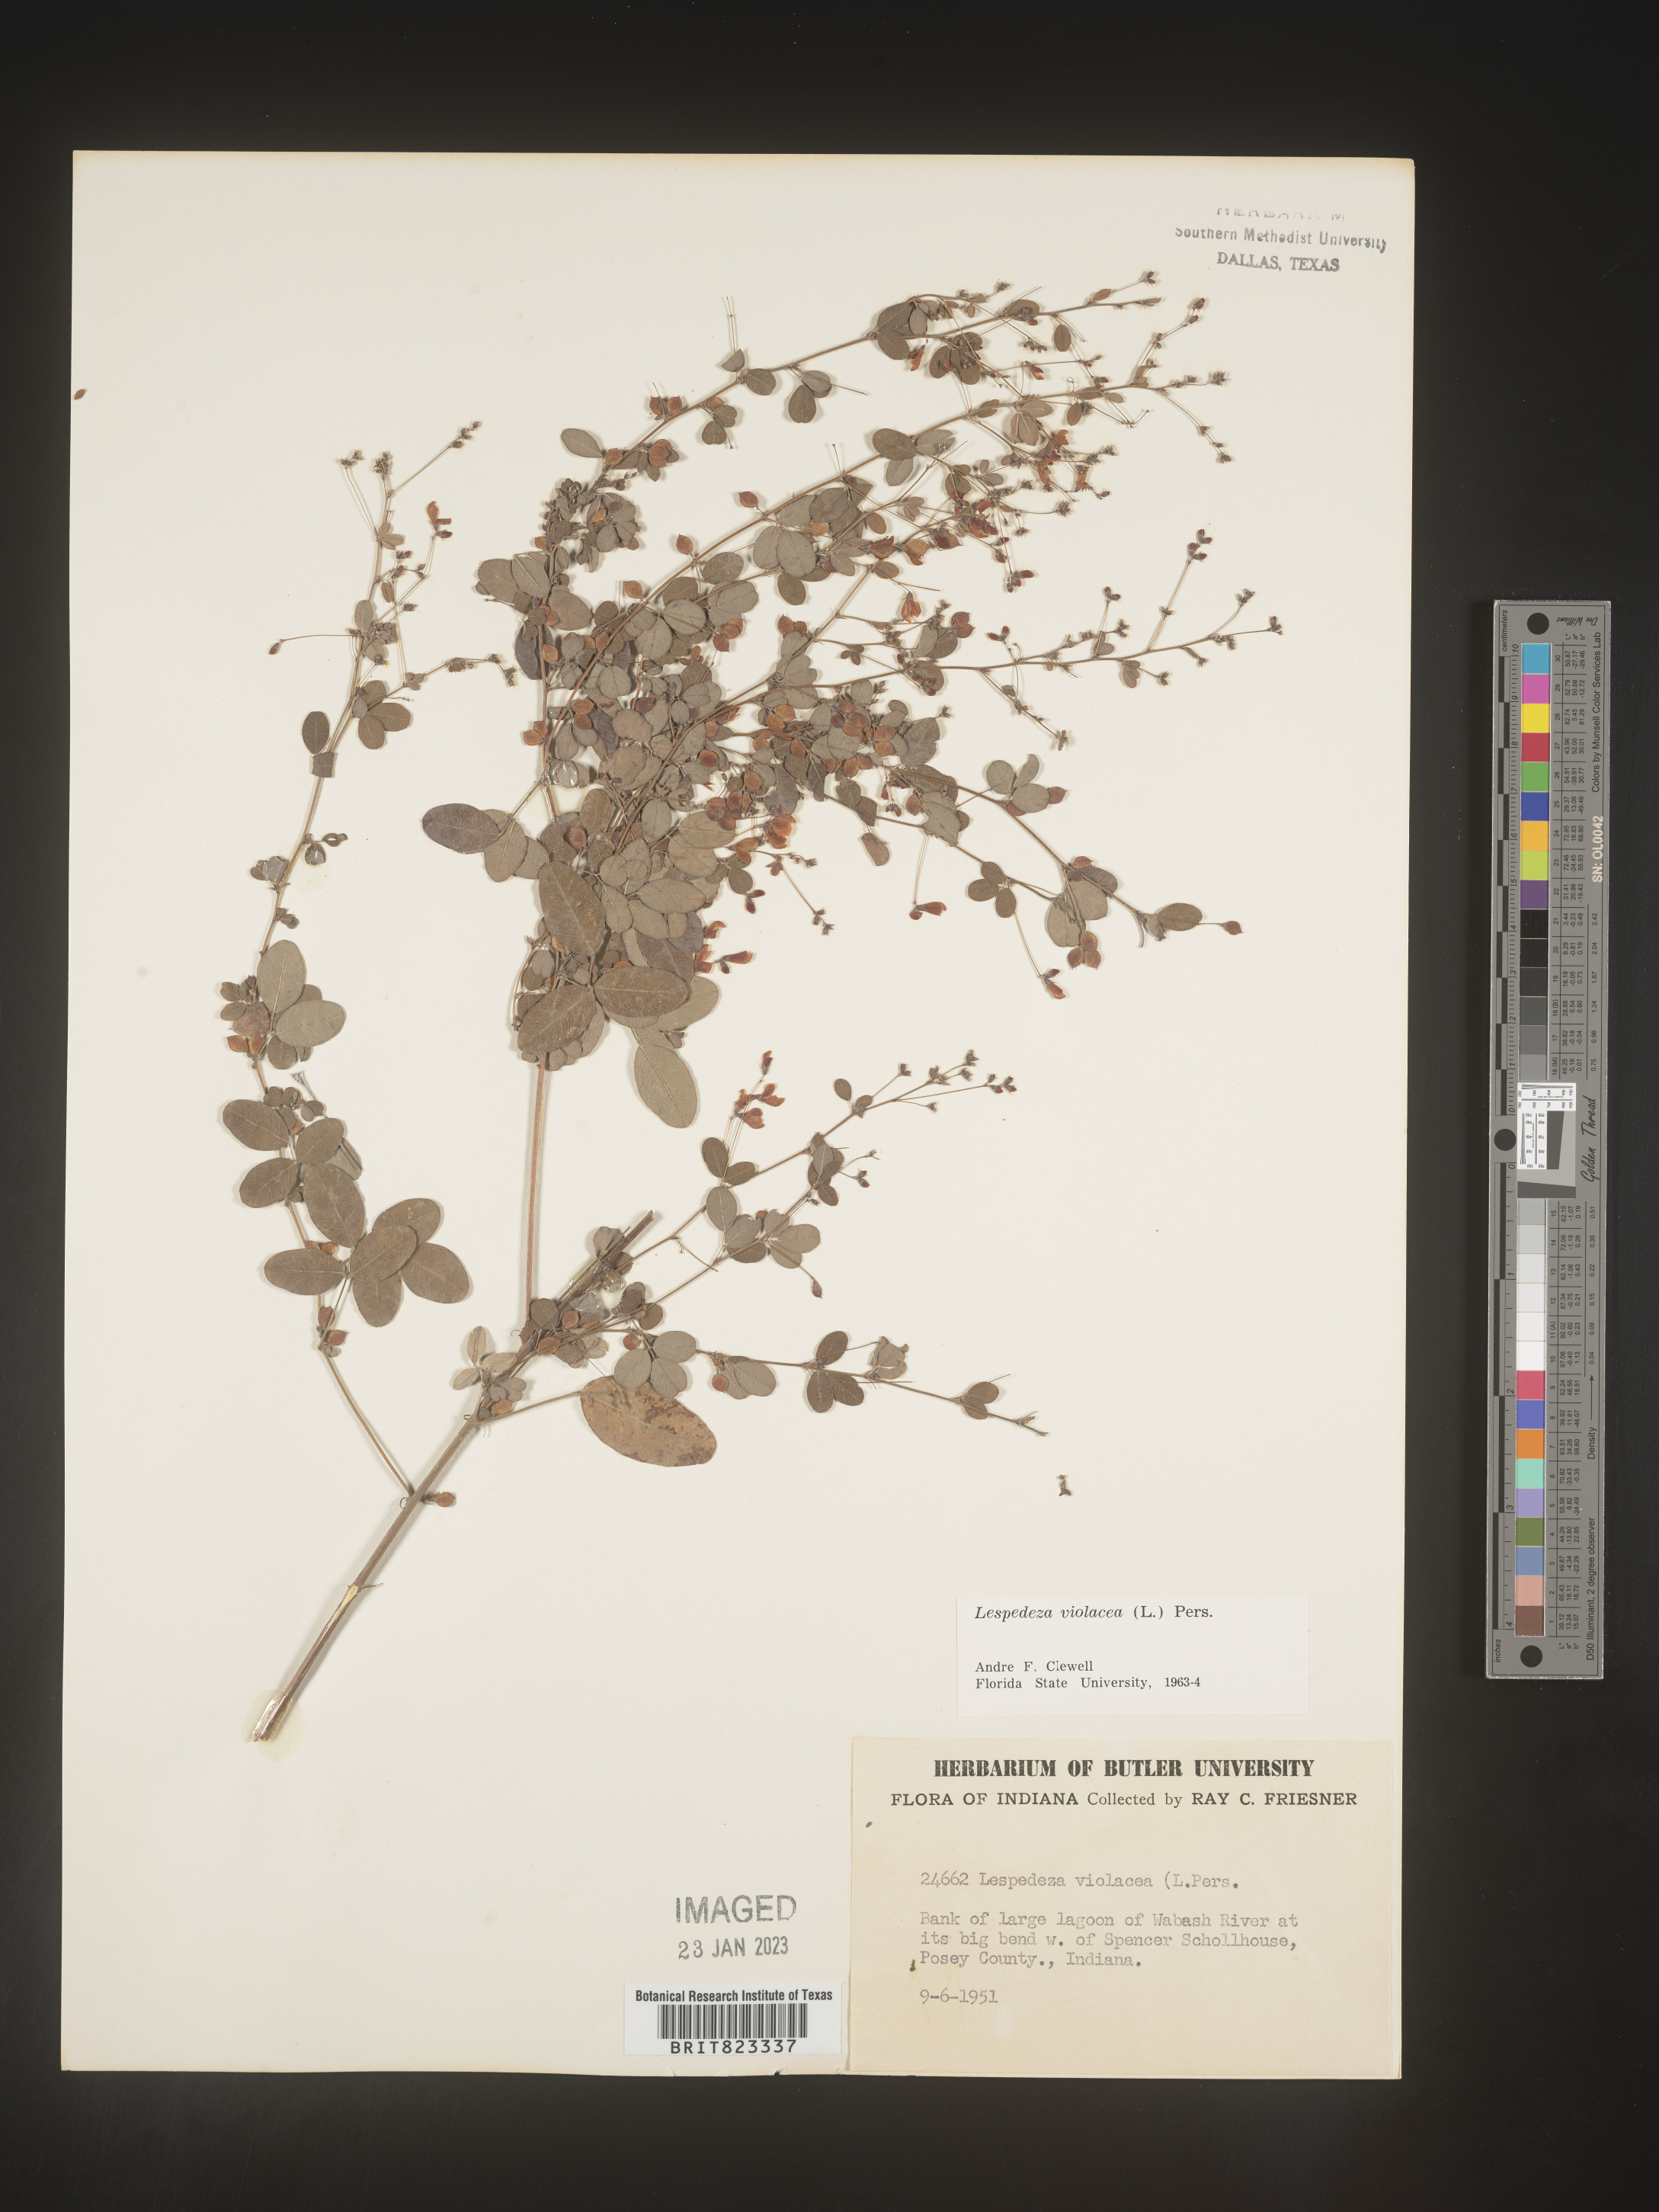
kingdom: Plantae
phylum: Tracheophyta
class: Magnoliopsida
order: Fabales
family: Fabaceae
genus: Lespedeza
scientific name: Lespedeza violacea
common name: Wand bush-clover
